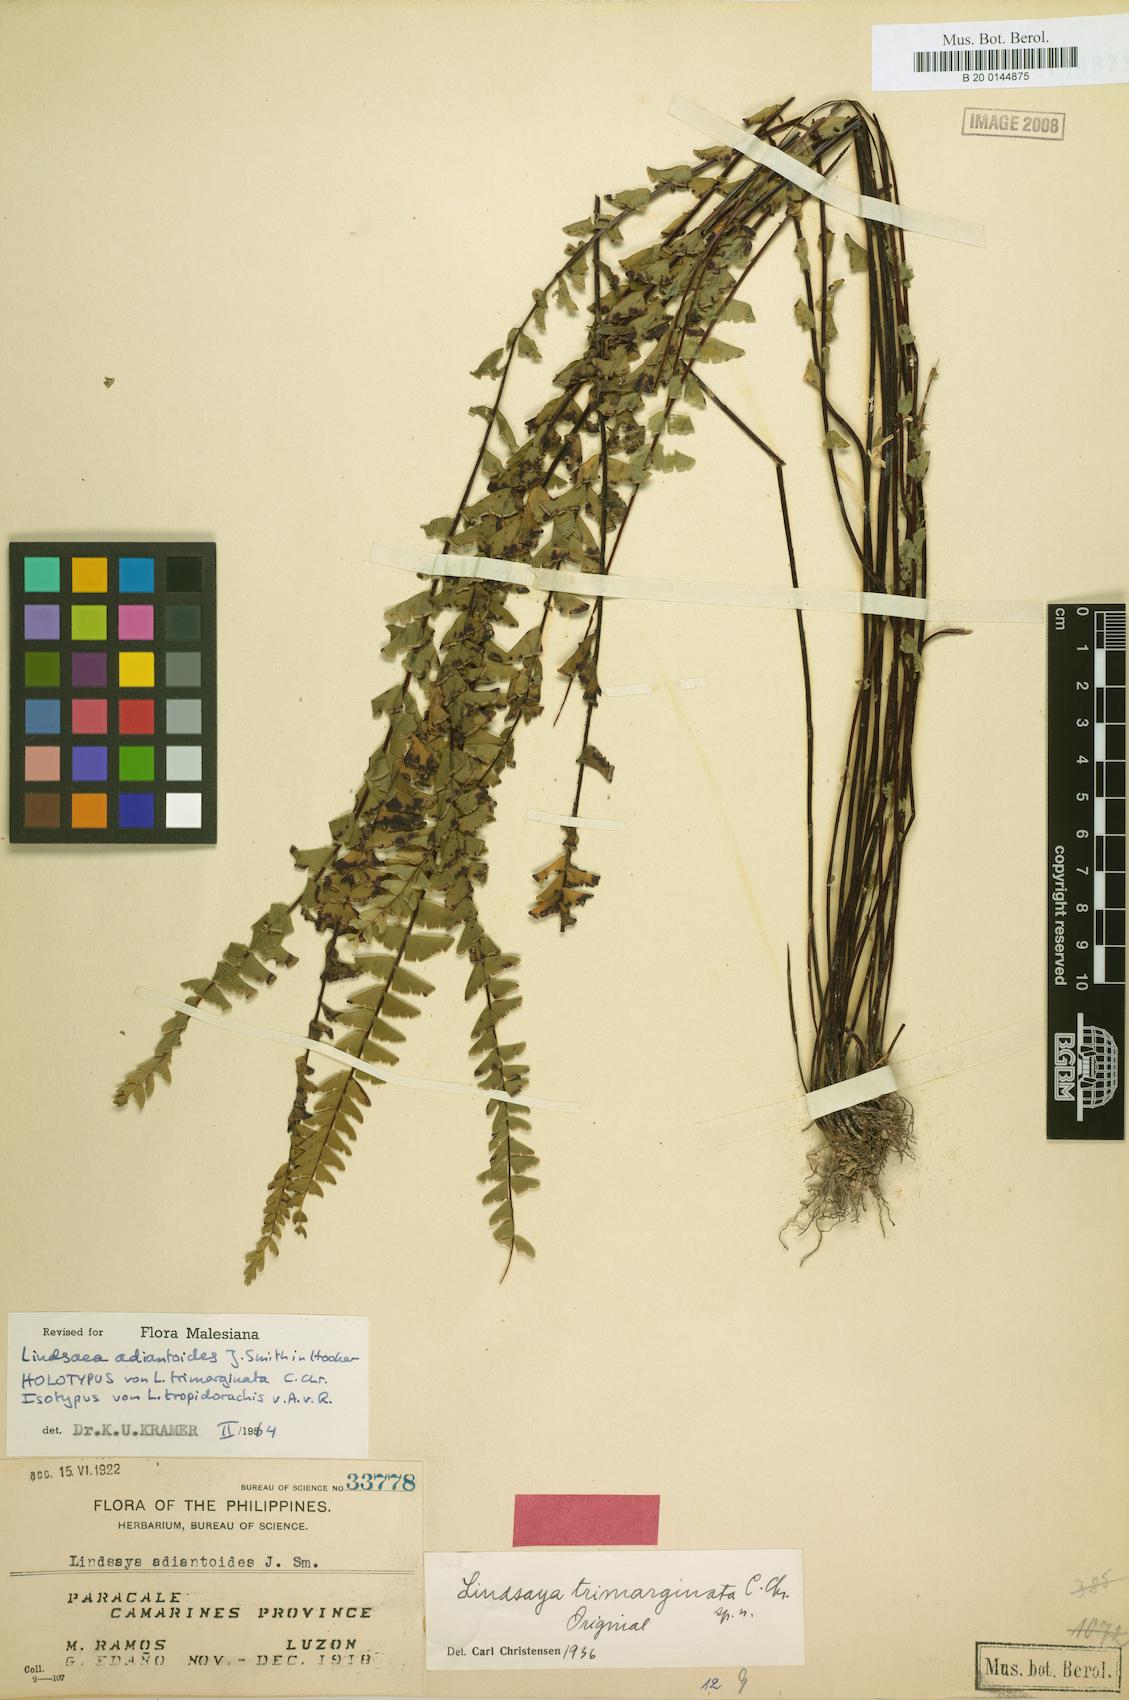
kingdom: Plantae
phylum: Tracheophyta
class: Polypodiopsida
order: Polypodiales
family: Lindsaeaceae
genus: Lindsaea
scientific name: Lindsaea adiantoides
